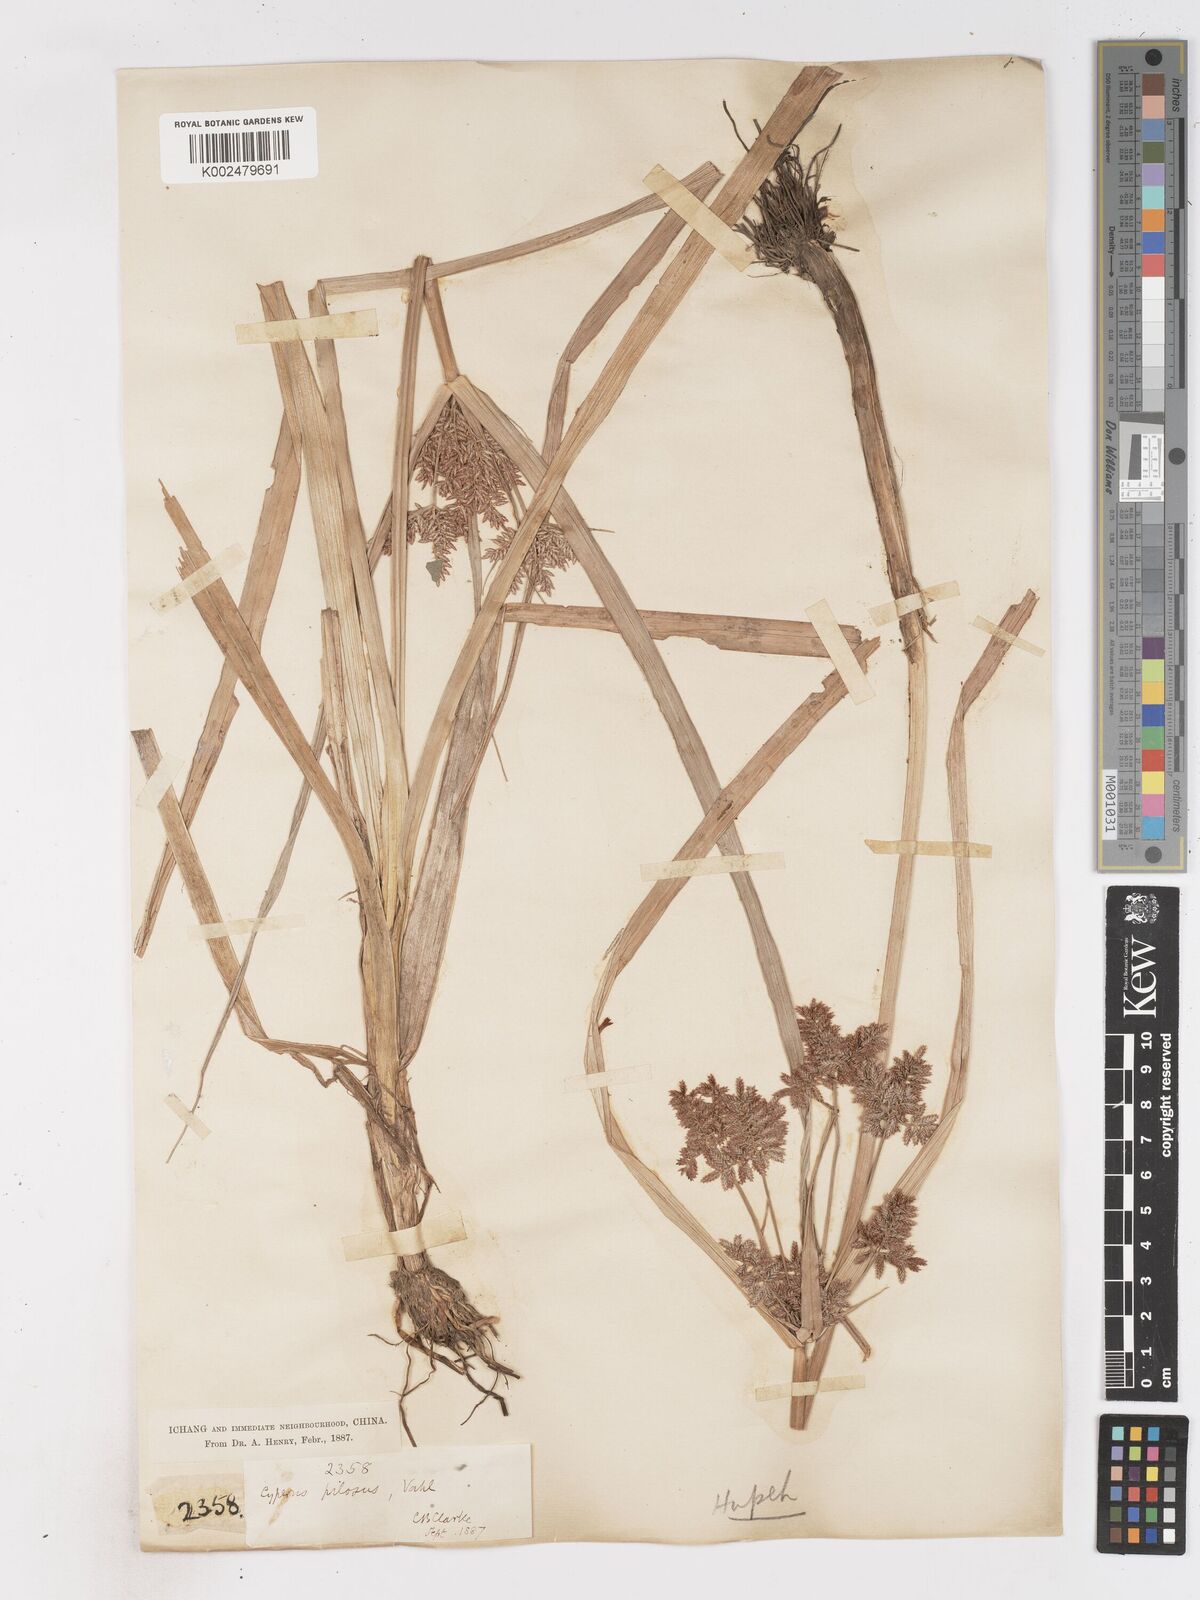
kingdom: Plantae
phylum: Tracheophyta
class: Liliopsida
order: Poales
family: Cyperaceae
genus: Cyperus
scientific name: Cyperus pilosus
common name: Fuzzy flatsedge
